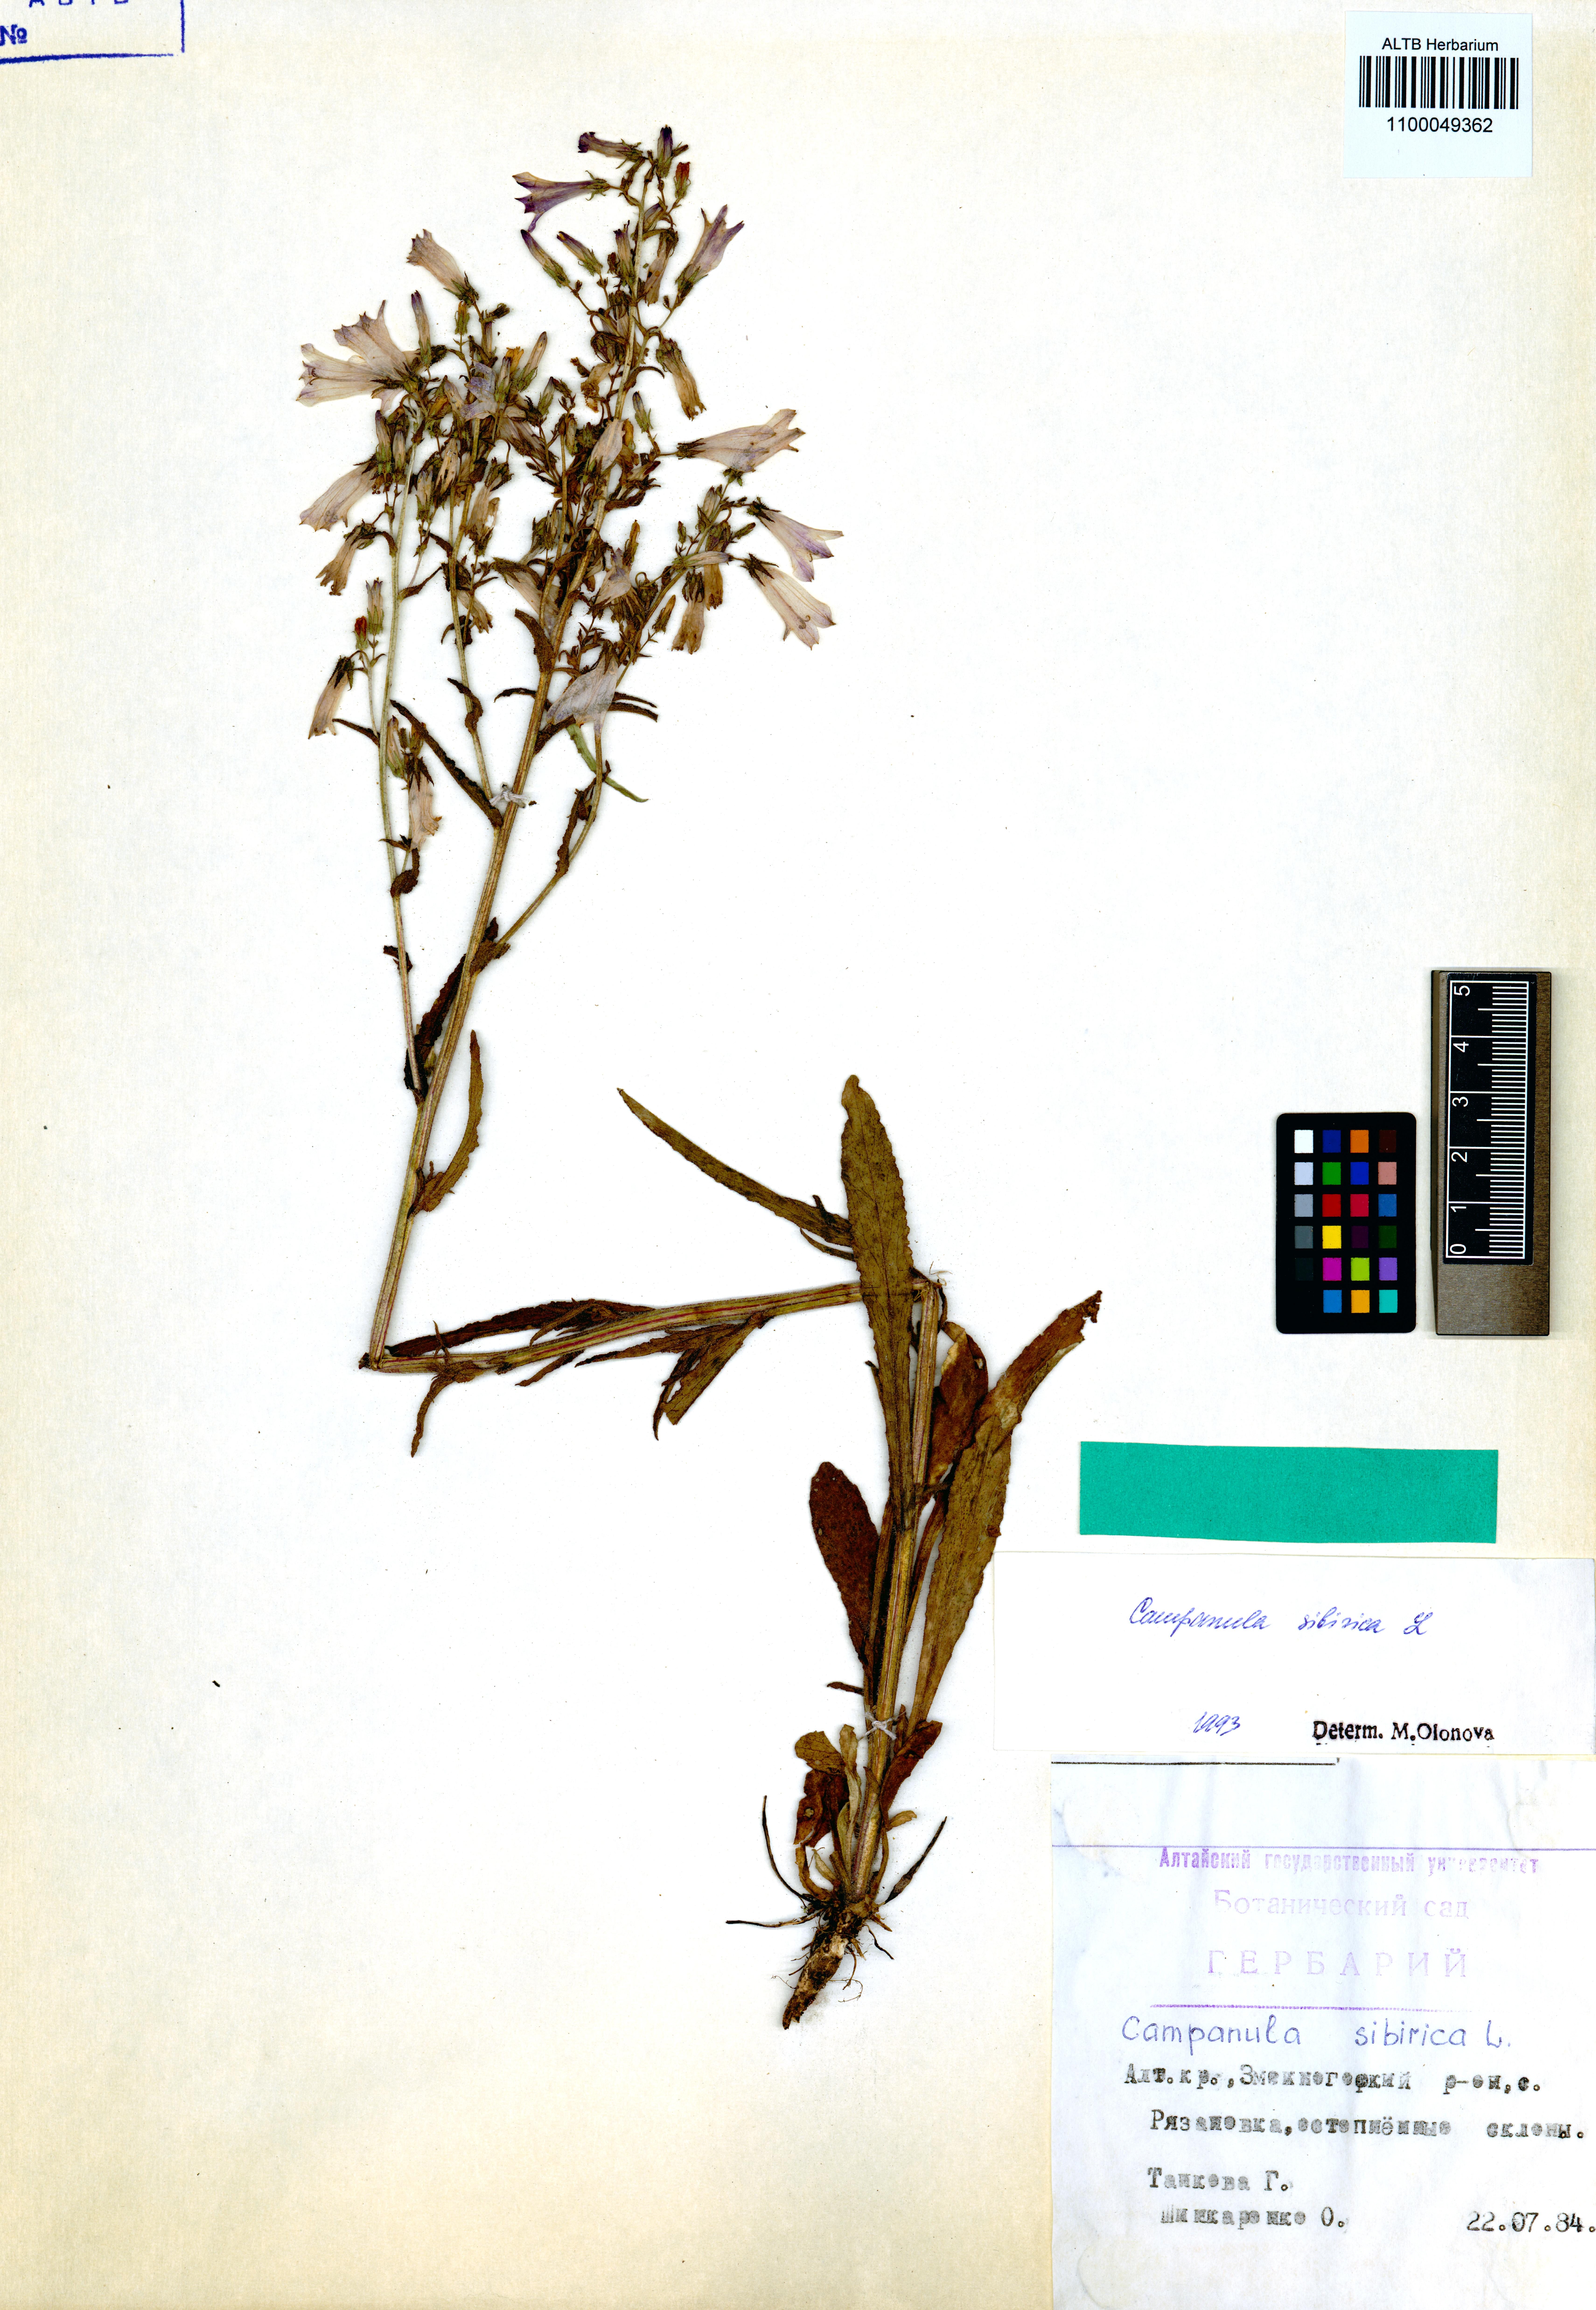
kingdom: Plantae
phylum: Tracheophyta
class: Magnoliopsida
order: Asterales
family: Campanulaceae
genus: Campanula
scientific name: Campanula sibirica
